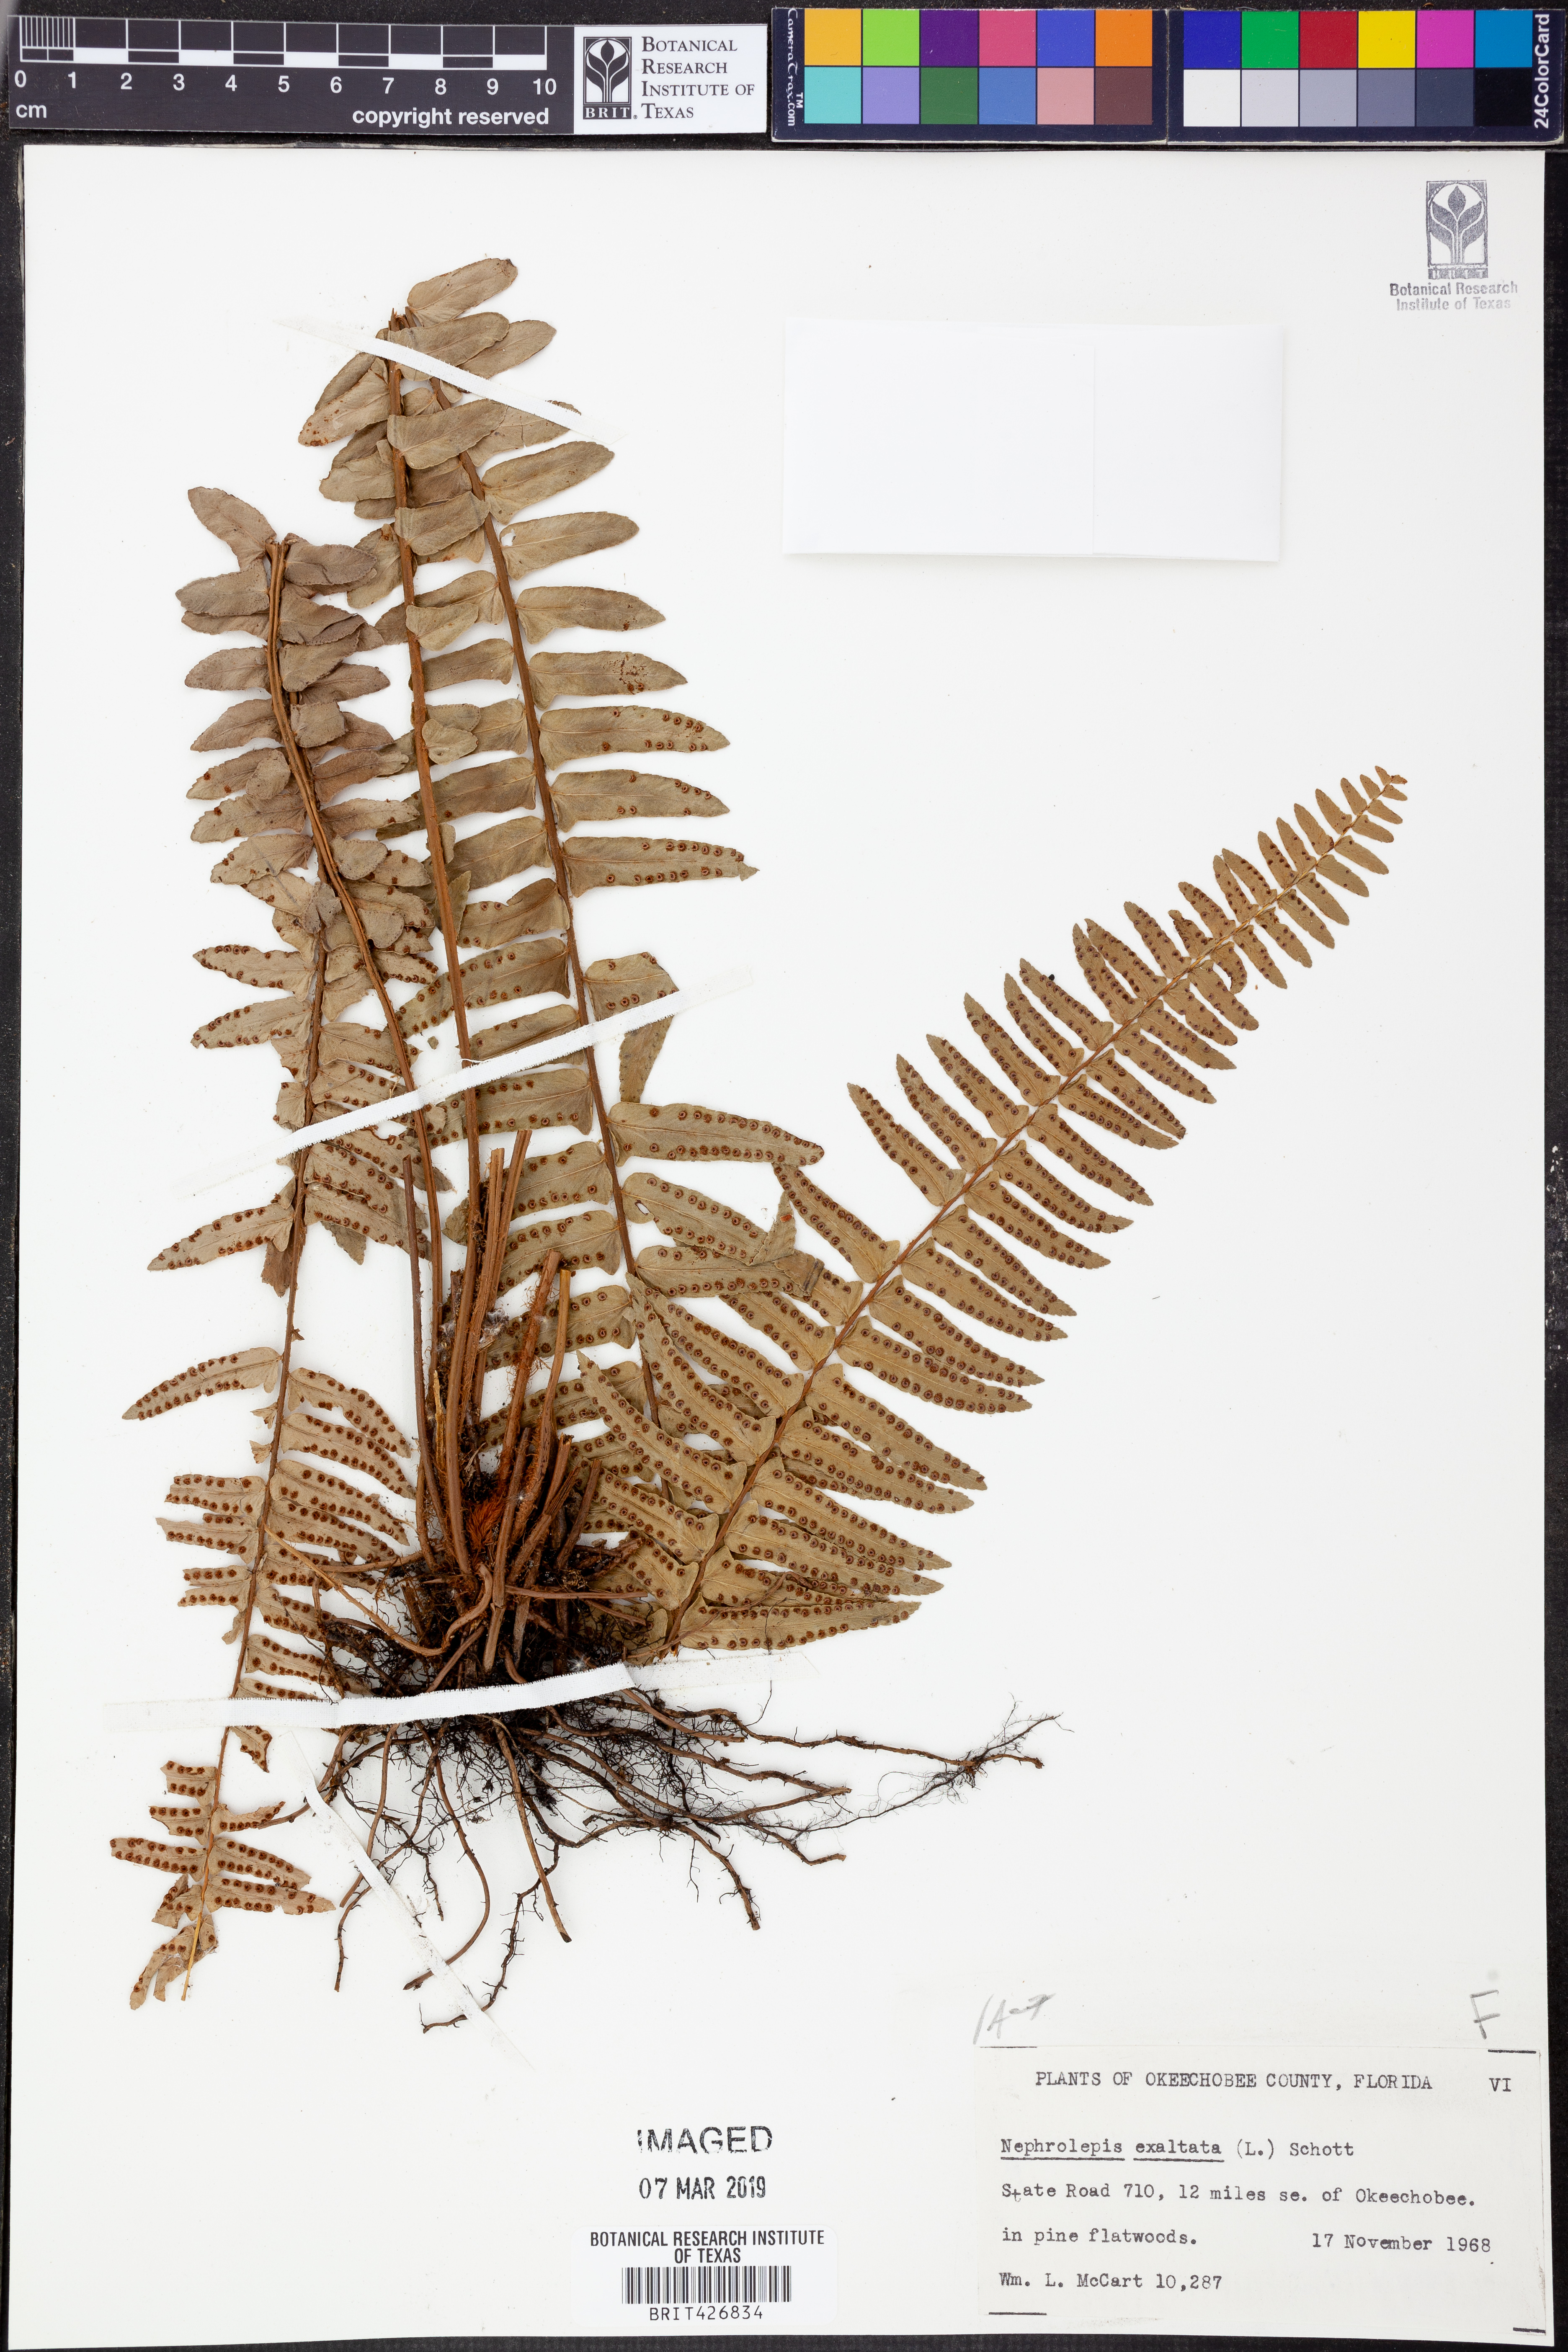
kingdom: Plantae
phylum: Tracheophyta
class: Polypodiopsida
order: Polypodiales
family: Nephrolepidaceae
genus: Nephrolepis
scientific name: Nephrolepis exaltata
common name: Sword fern
